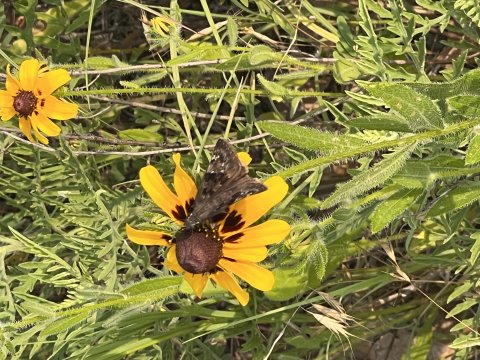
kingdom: Animalia
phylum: Arthropoda
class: Insecta
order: Lepidoptera
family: Hesperiidae
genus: Gesta
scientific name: Gesta
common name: Horace's Duskywing
